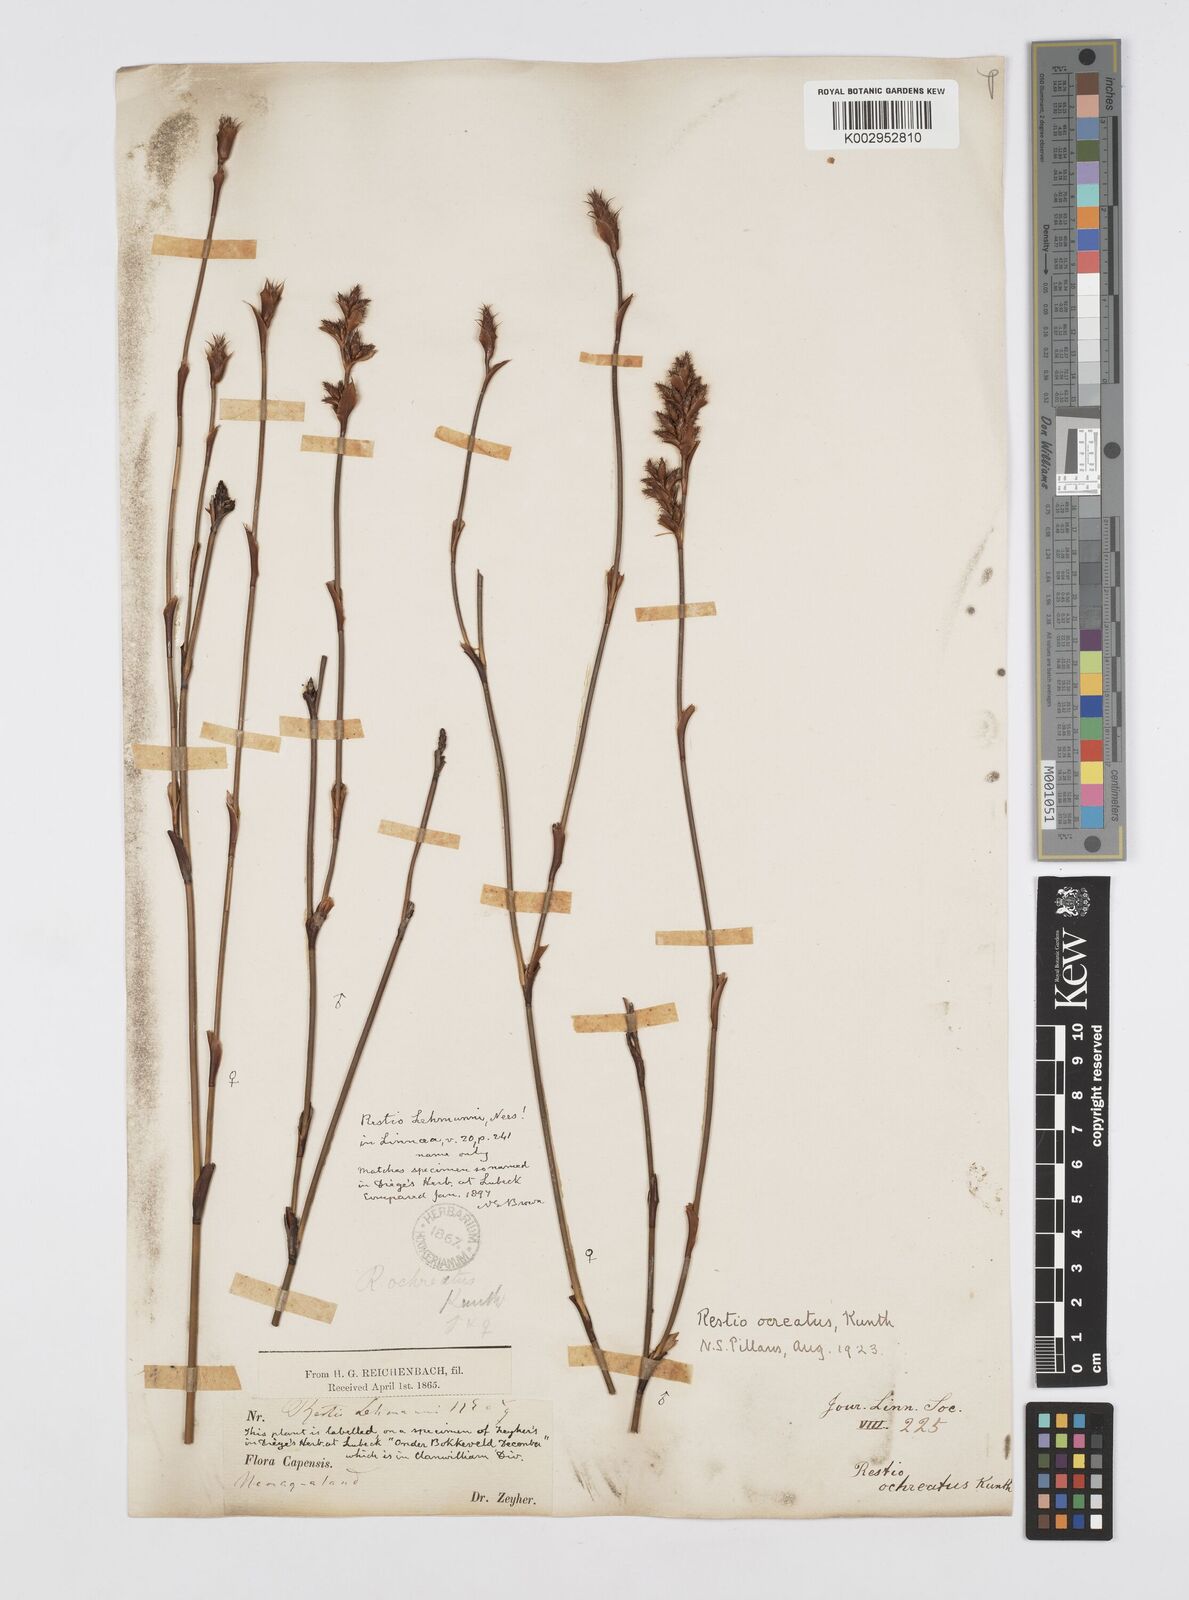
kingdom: Plantae
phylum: Tracheophyta
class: Liliopsida
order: Poales
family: Restionaceae
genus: Restio
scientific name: Restio ocreatus
